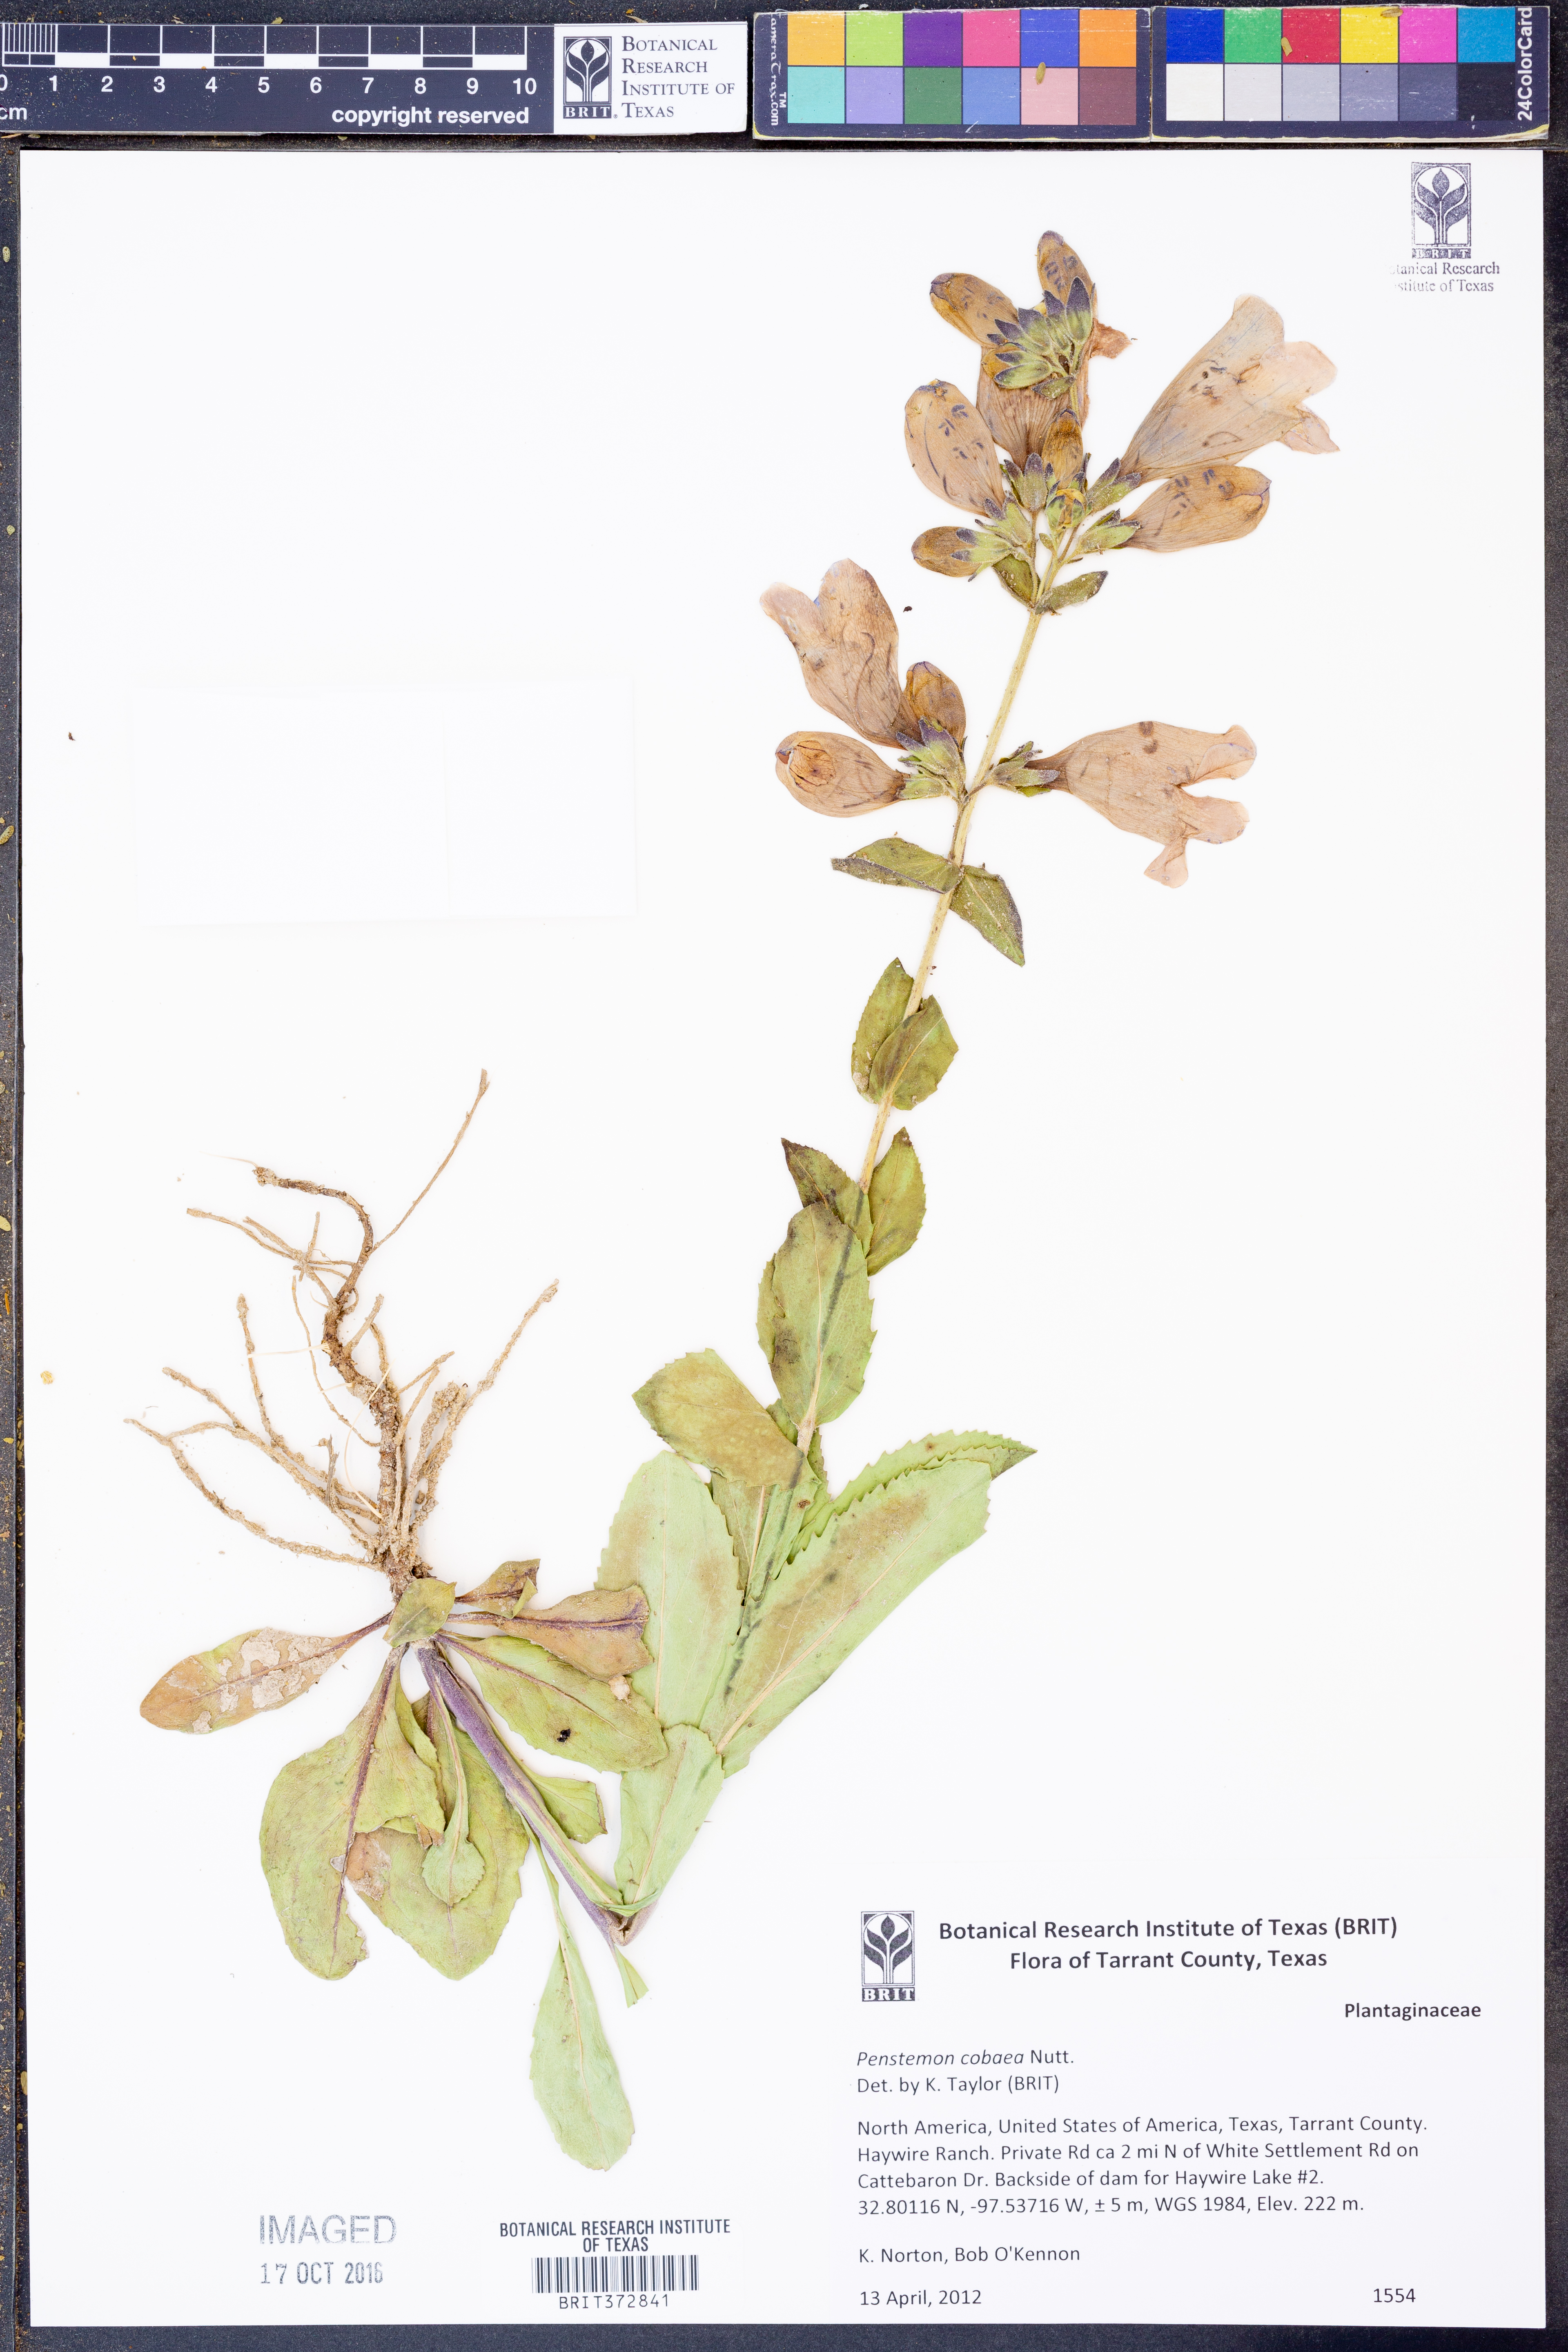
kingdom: Plantae
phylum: Tracheophyta
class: Magnoliopsida
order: Lamiales
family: Plantaginaceae
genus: Penstemon
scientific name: Penstemon cobaea
